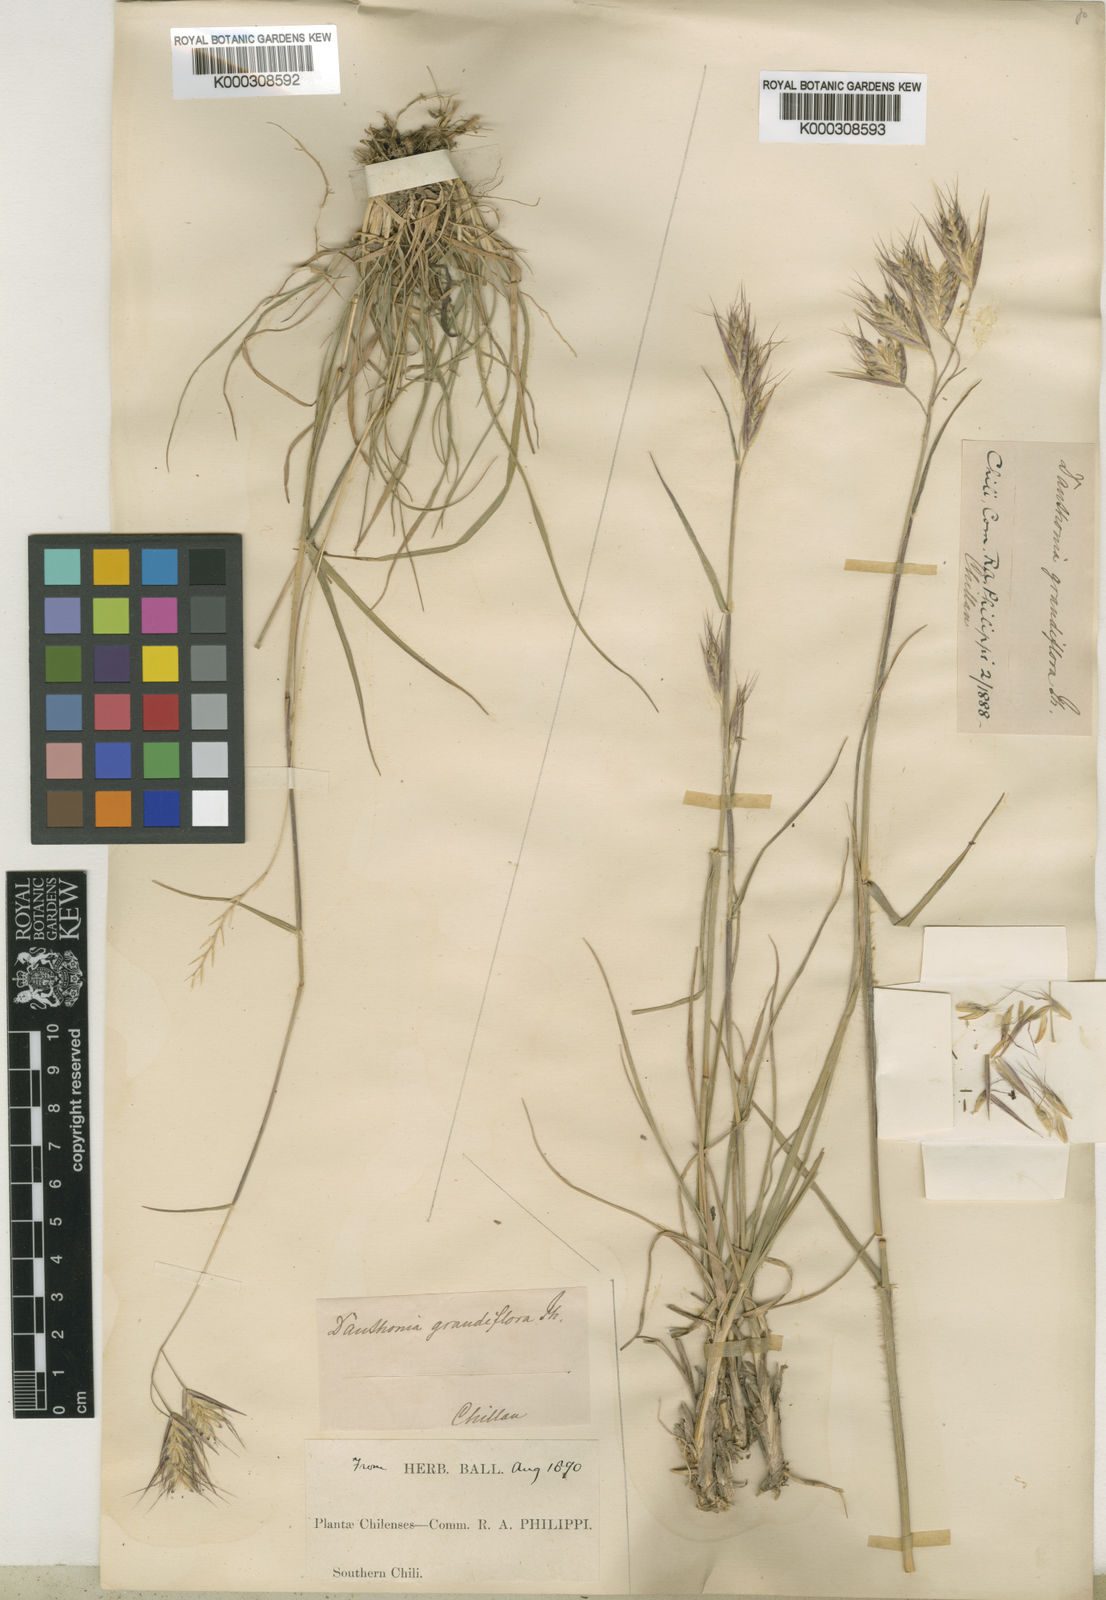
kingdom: Plantae
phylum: Tracheophyta
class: Liliopsida
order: Poales
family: Poaceae
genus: Danthonia
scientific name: Danthonia californica
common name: California oat grass
